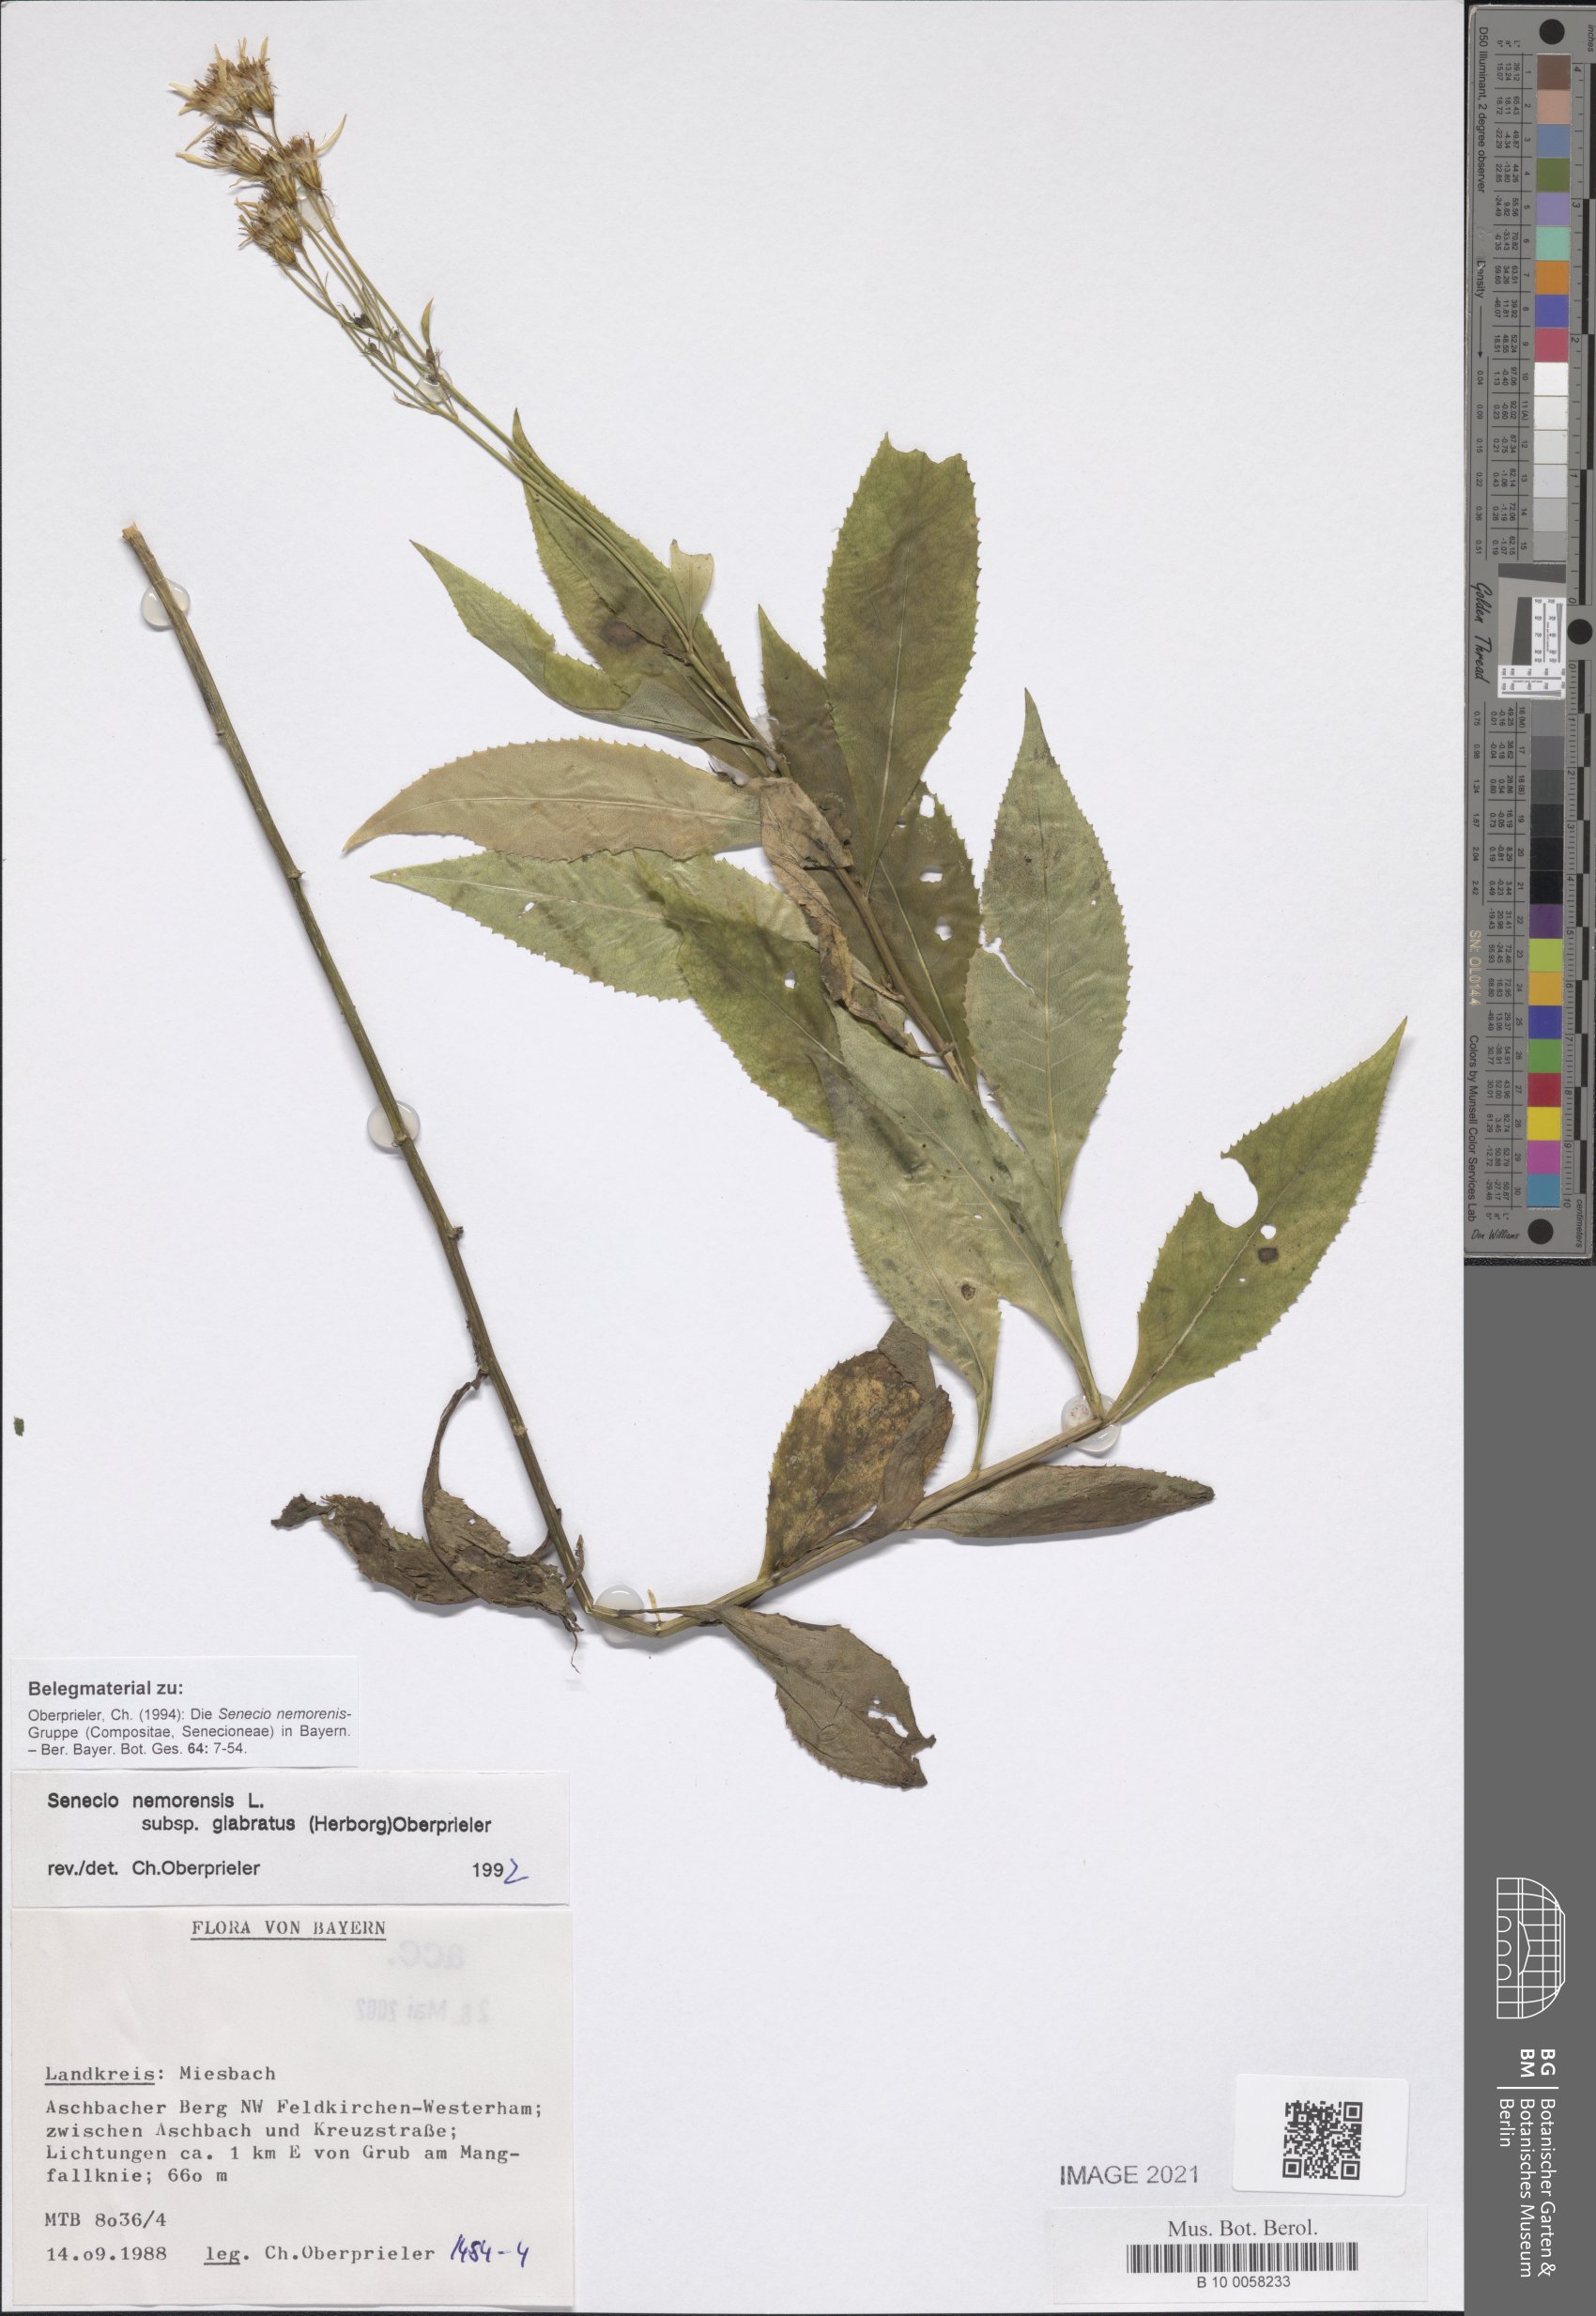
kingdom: Plantae
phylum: Tracheophyta
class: Magnoliopsida
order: Asterales
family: Asteraceae
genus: Senecio
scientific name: Senecio germanicus
